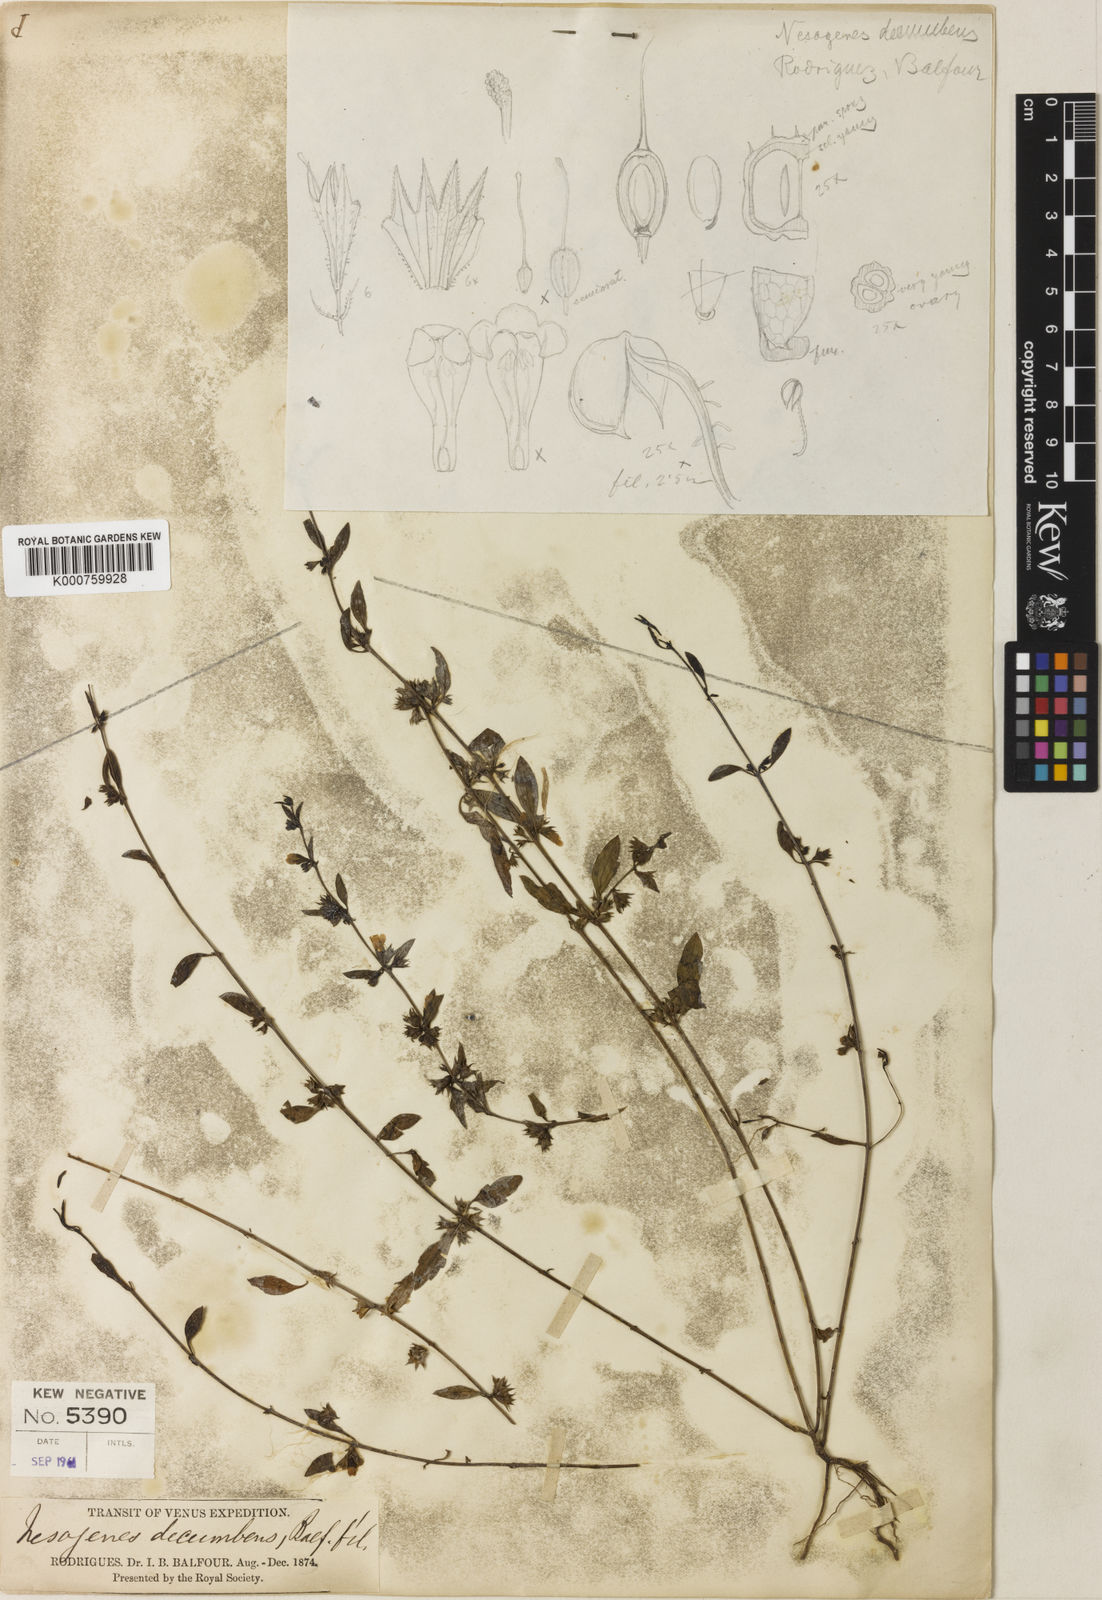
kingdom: Plantae
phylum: Tracheophyta
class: Magnoliopsida
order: Lamiales
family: Orobanchaceae
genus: Nesogenes
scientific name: Nesogenes decumbens
